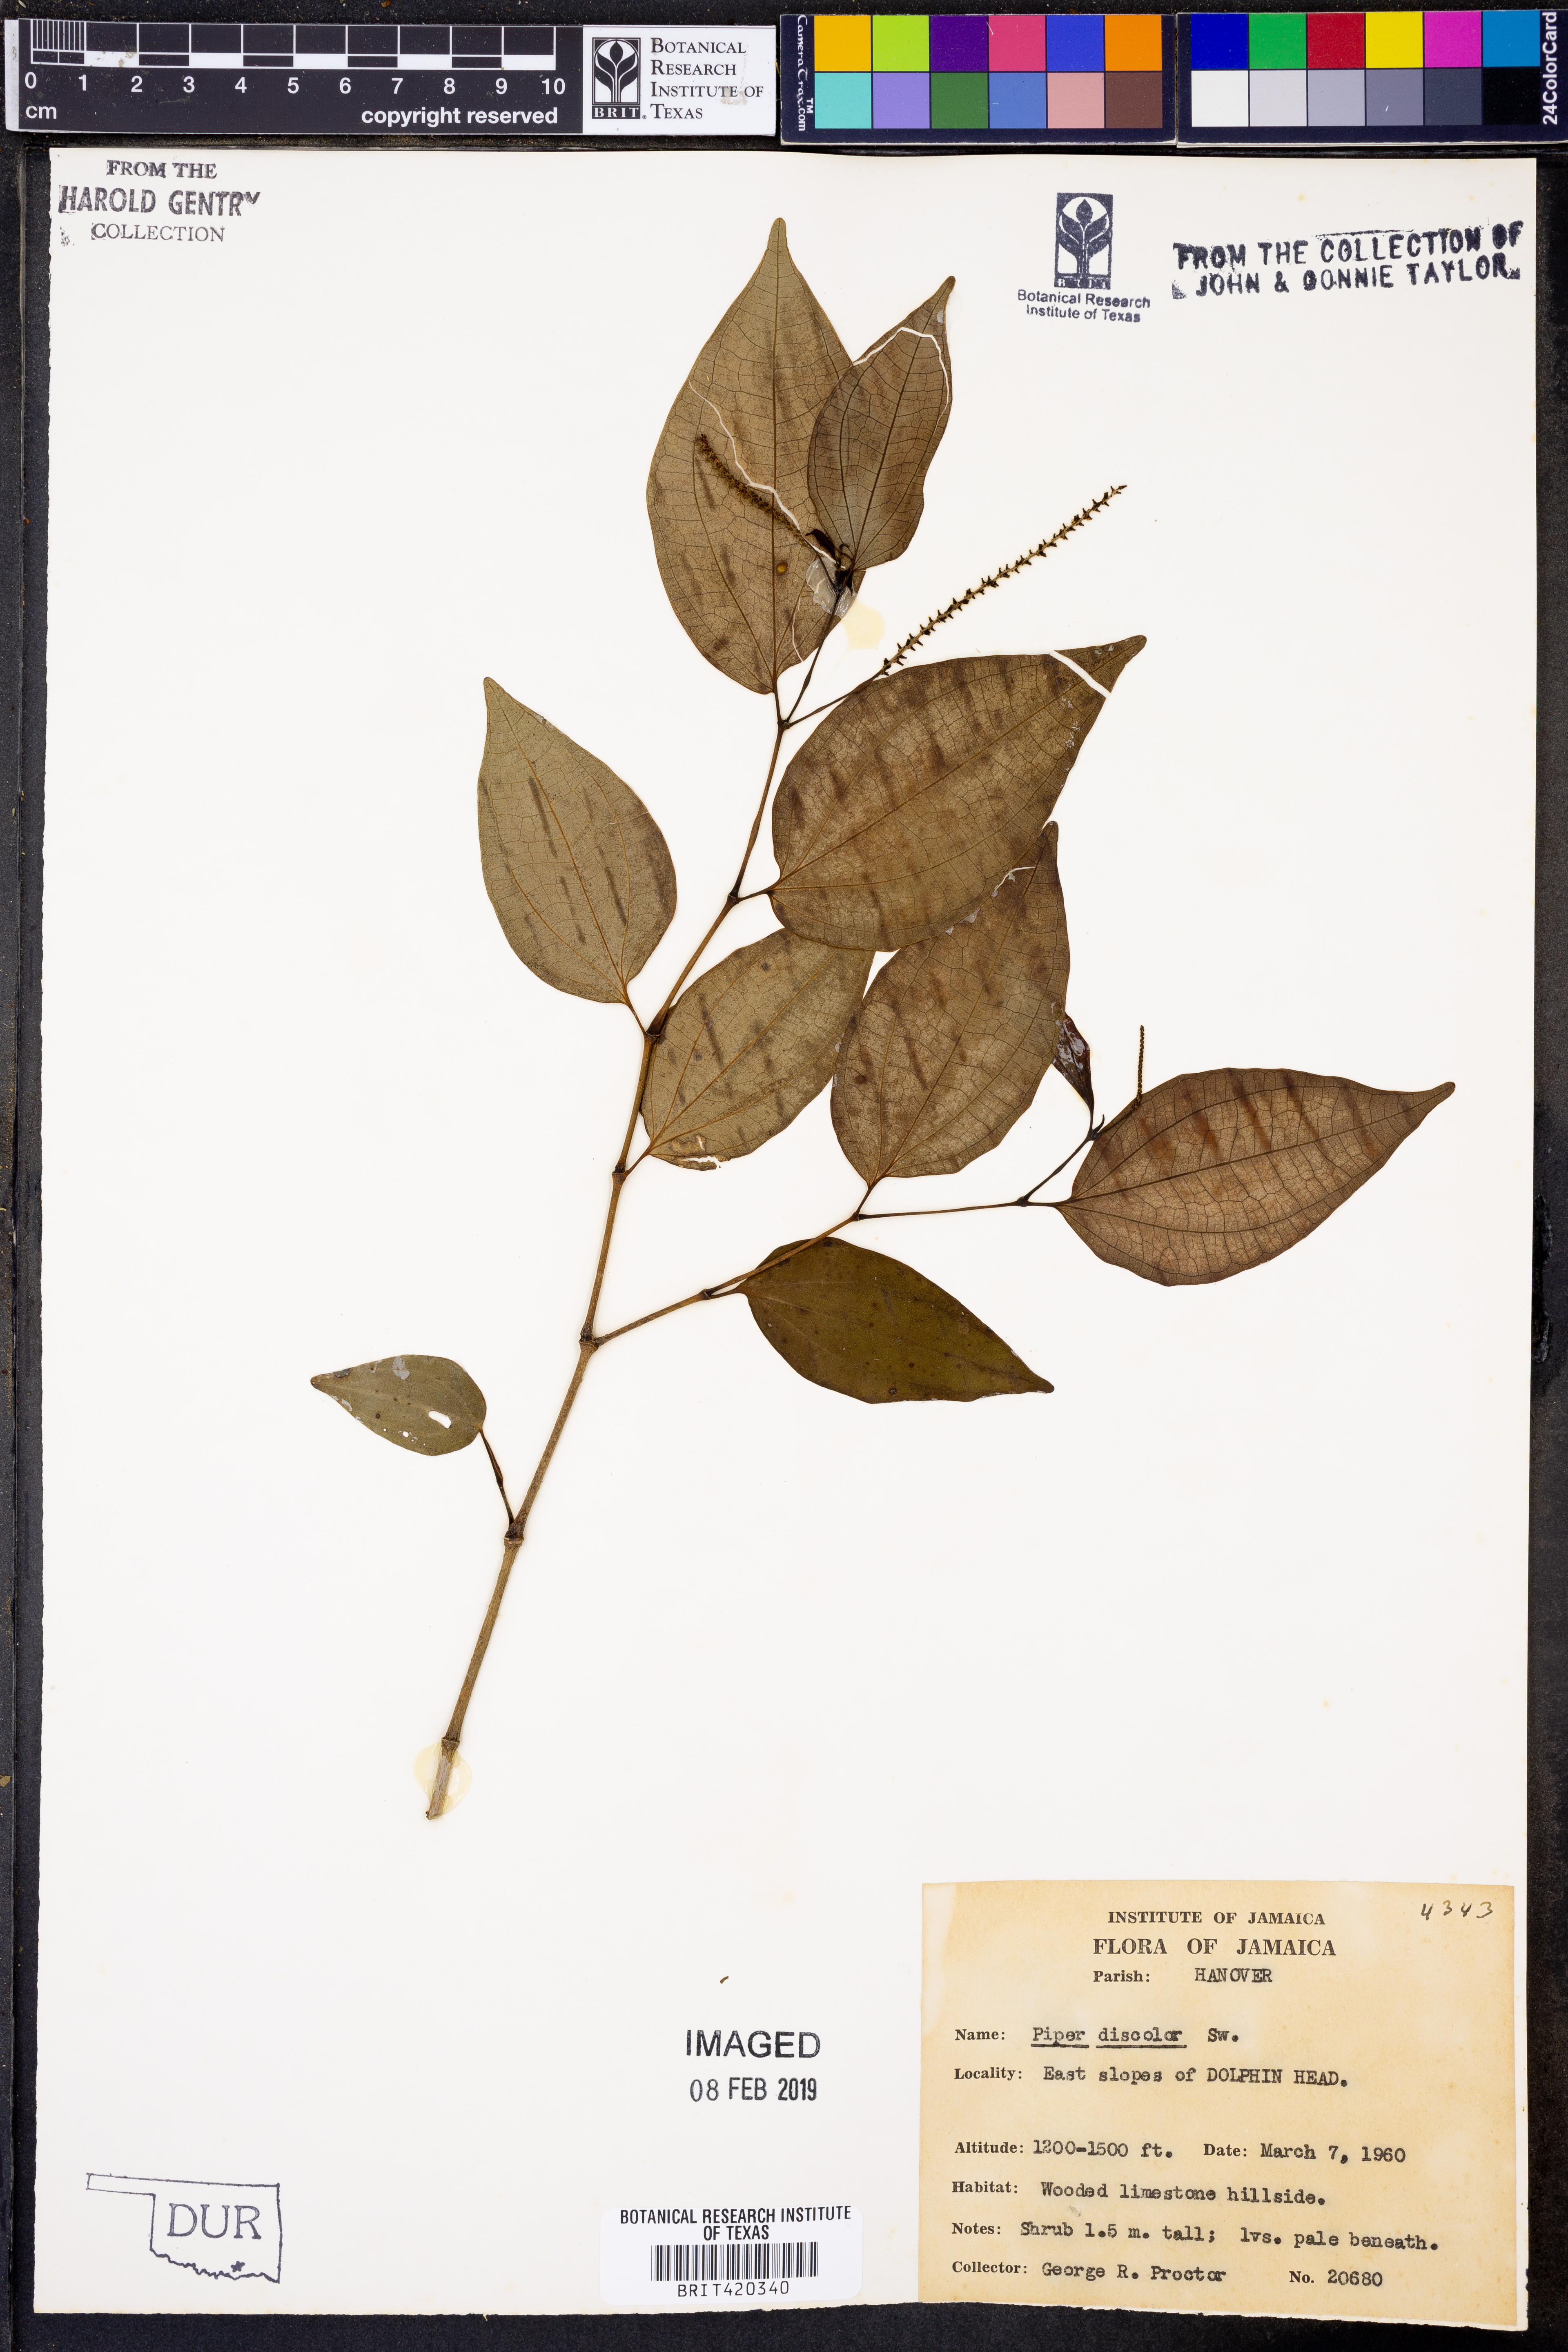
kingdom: Plantae
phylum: Tracheophyta
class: Magnoliopsida
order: Piperales
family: Piperaceae
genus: Peperomia
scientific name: Peperomia discolor
